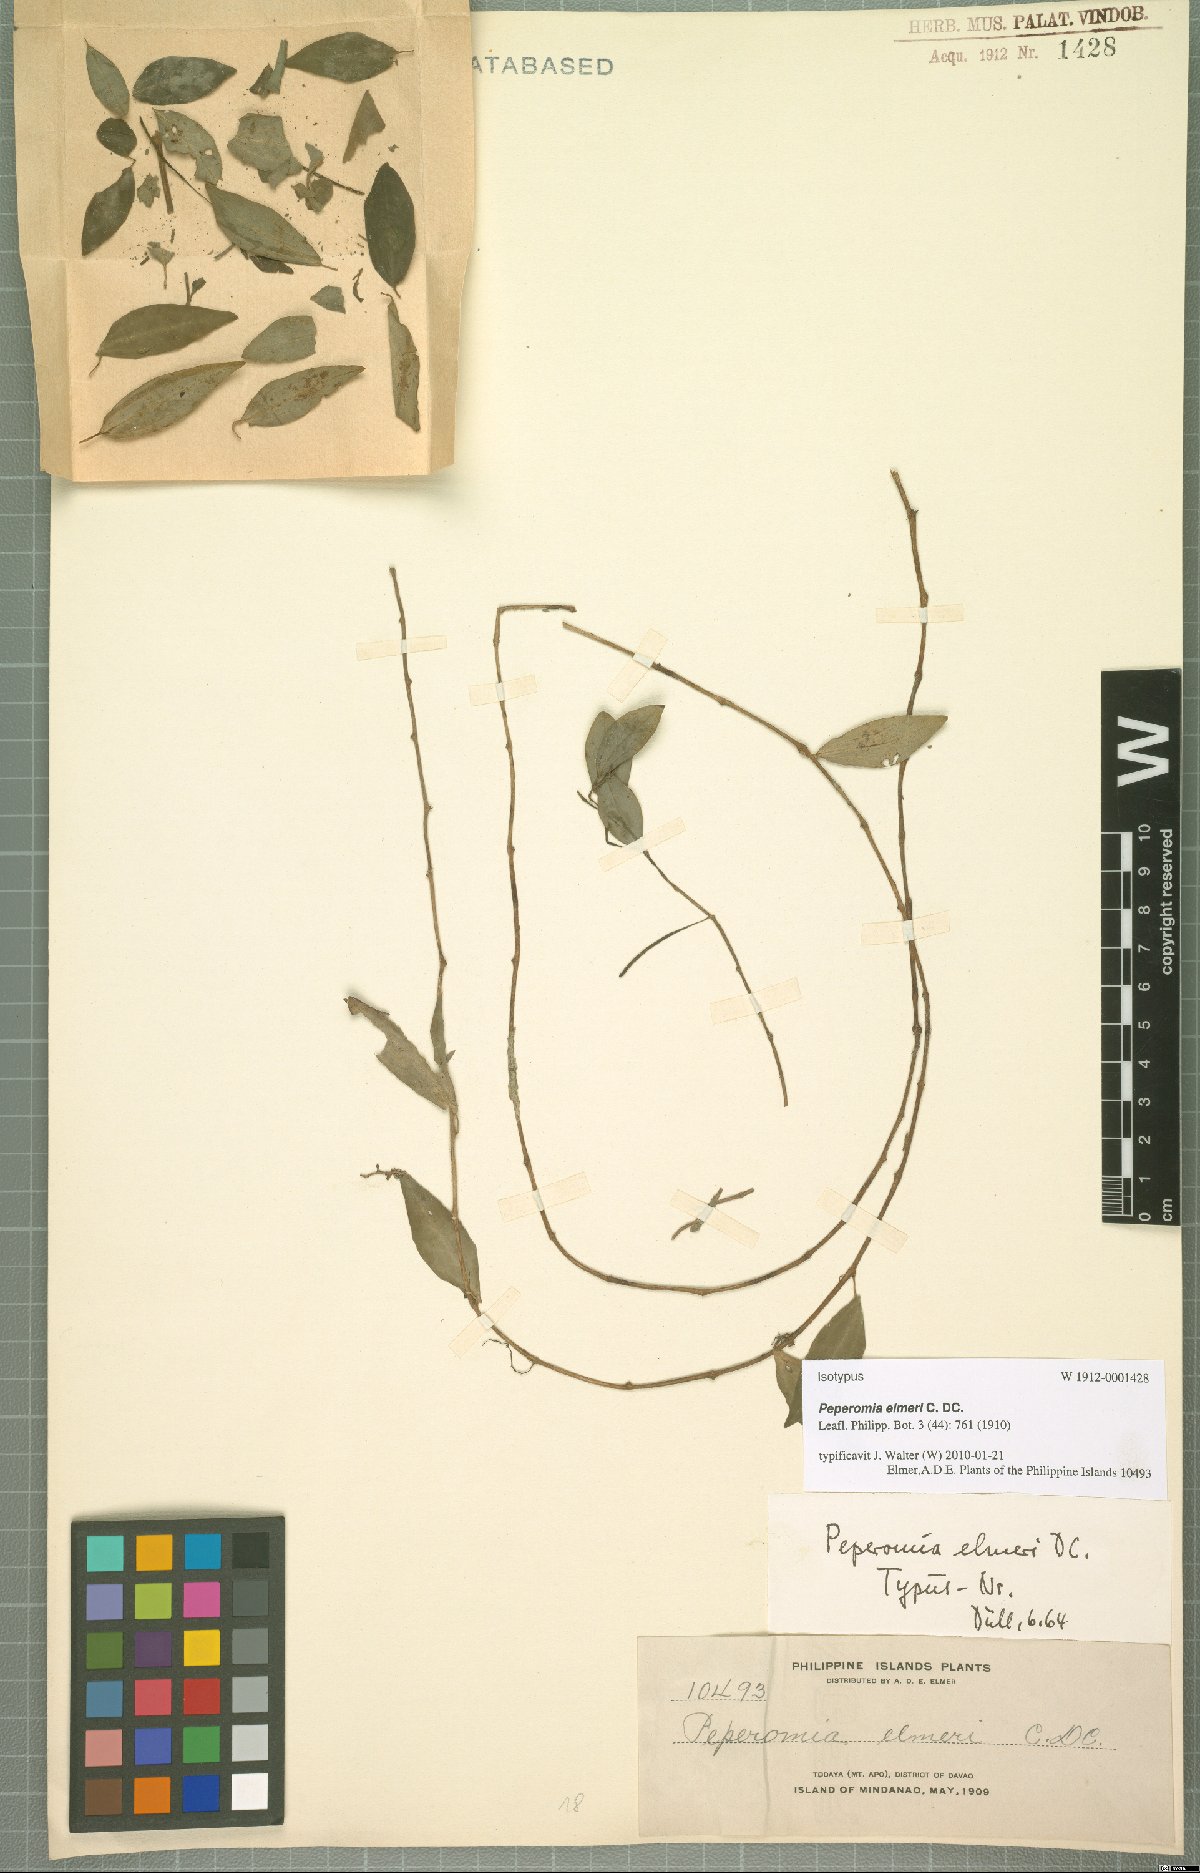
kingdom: Plantae
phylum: Tracheophyta
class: Magnoliopsida
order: Piperales
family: Piperaceae
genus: Peperomia
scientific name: Peperomia elmeri
